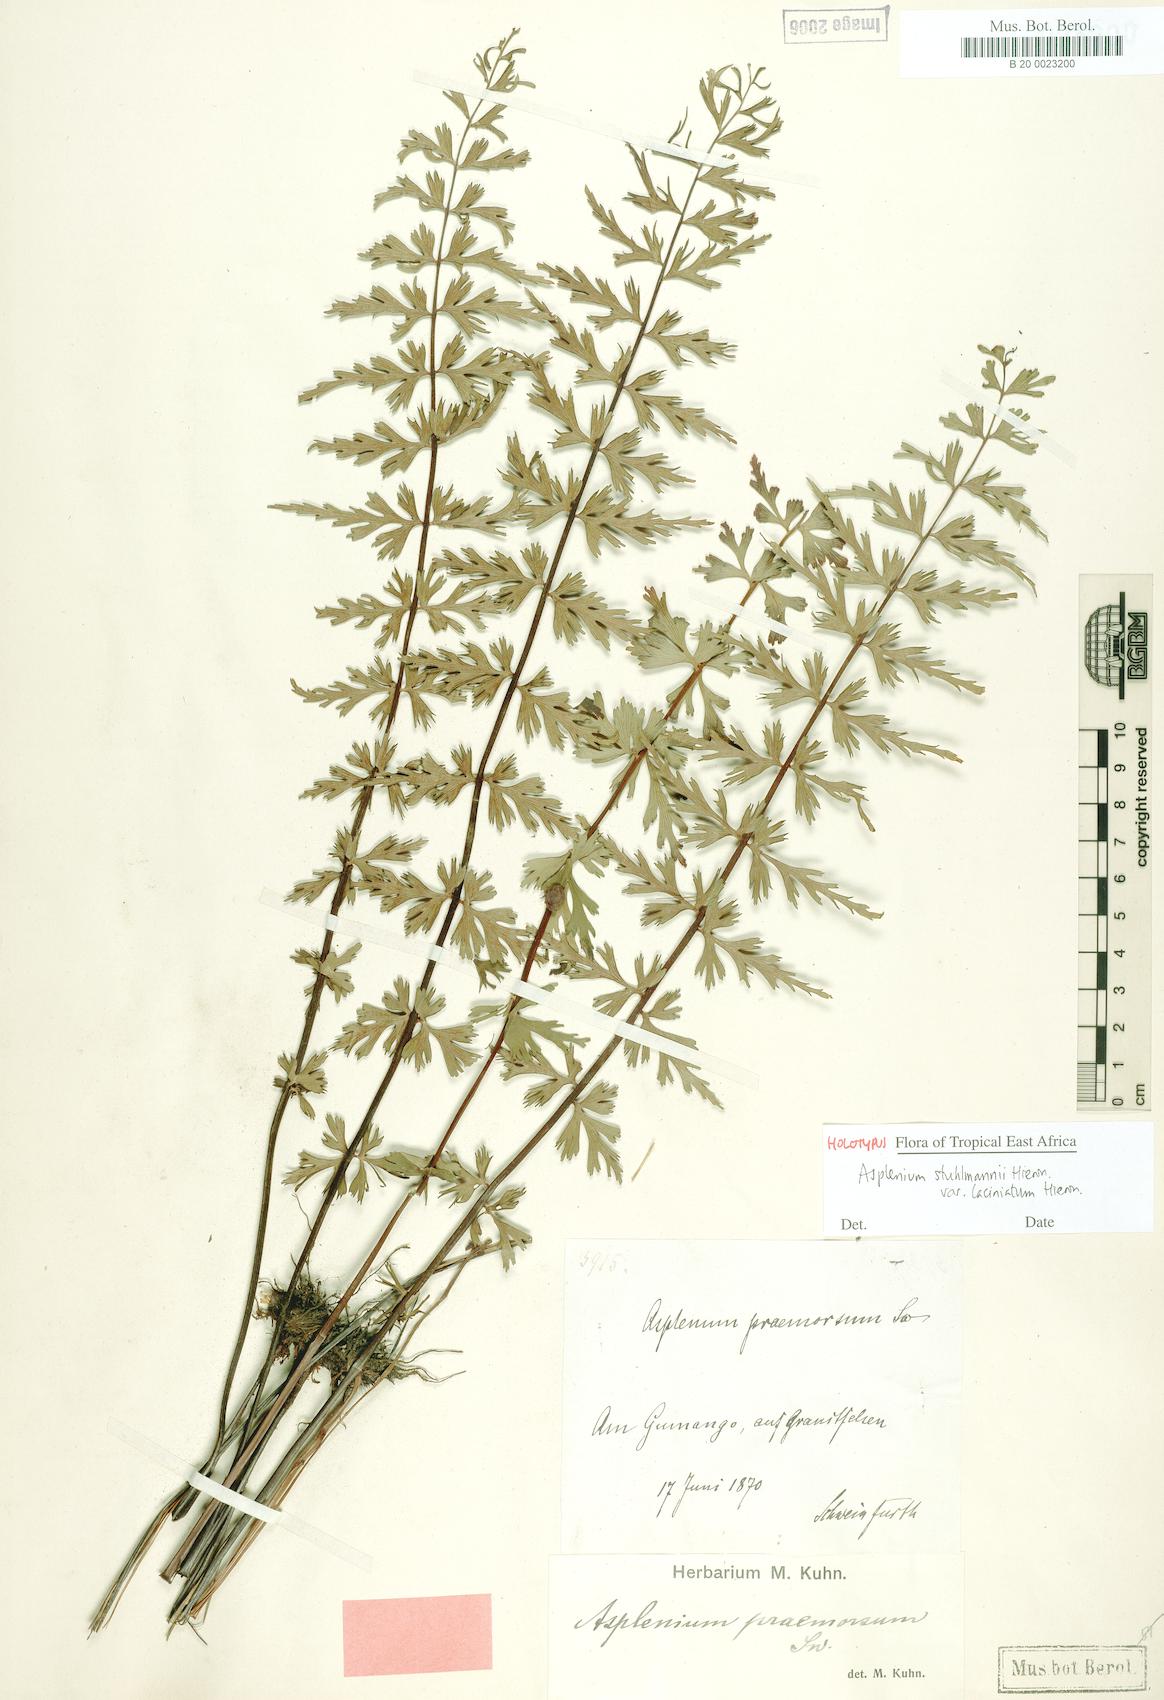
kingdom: Plantae
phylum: Tracheophyta
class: Polypodiopsida
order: Polypodiales
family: Aspleniaceae
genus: Asplenium
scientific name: Asplenium stuhlmannii
